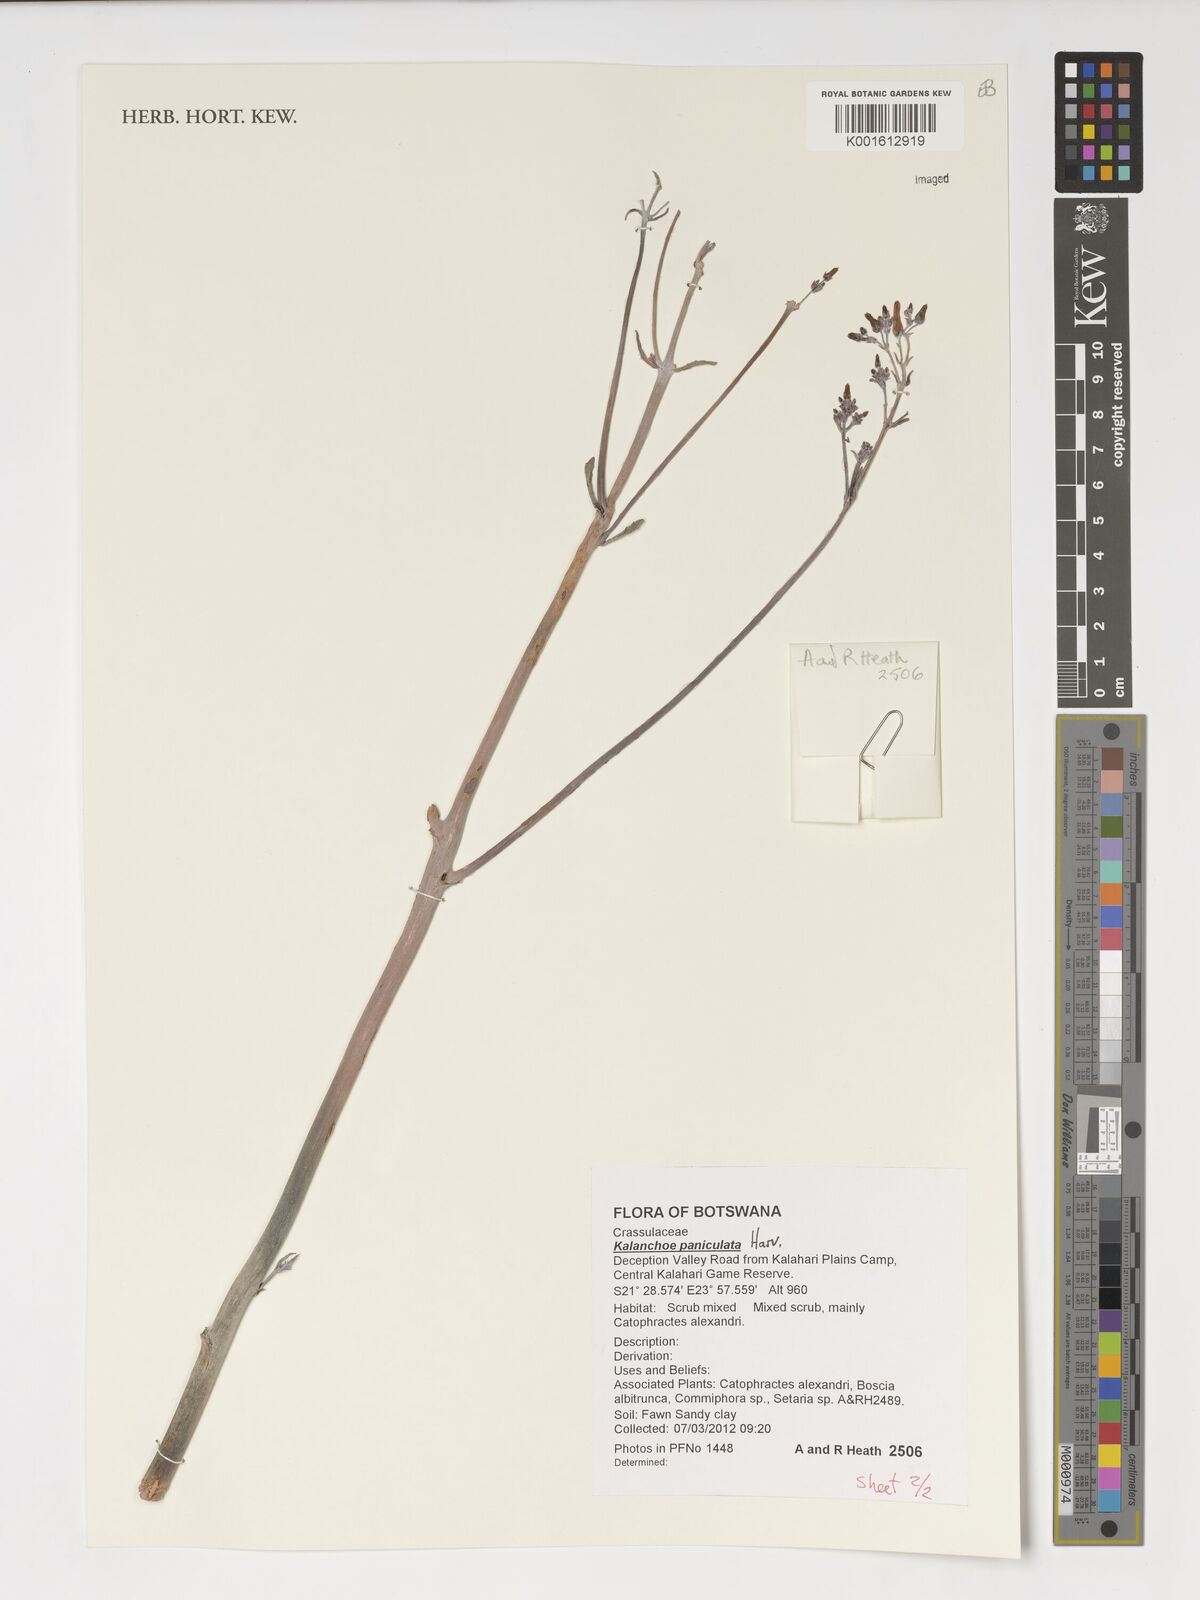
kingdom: Plantae
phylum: Tracheophyta
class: Magnoliopsida
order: Saxifragales
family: Crassulaceae
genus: Kalanchoe
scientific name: Kalanchoe paniculata
